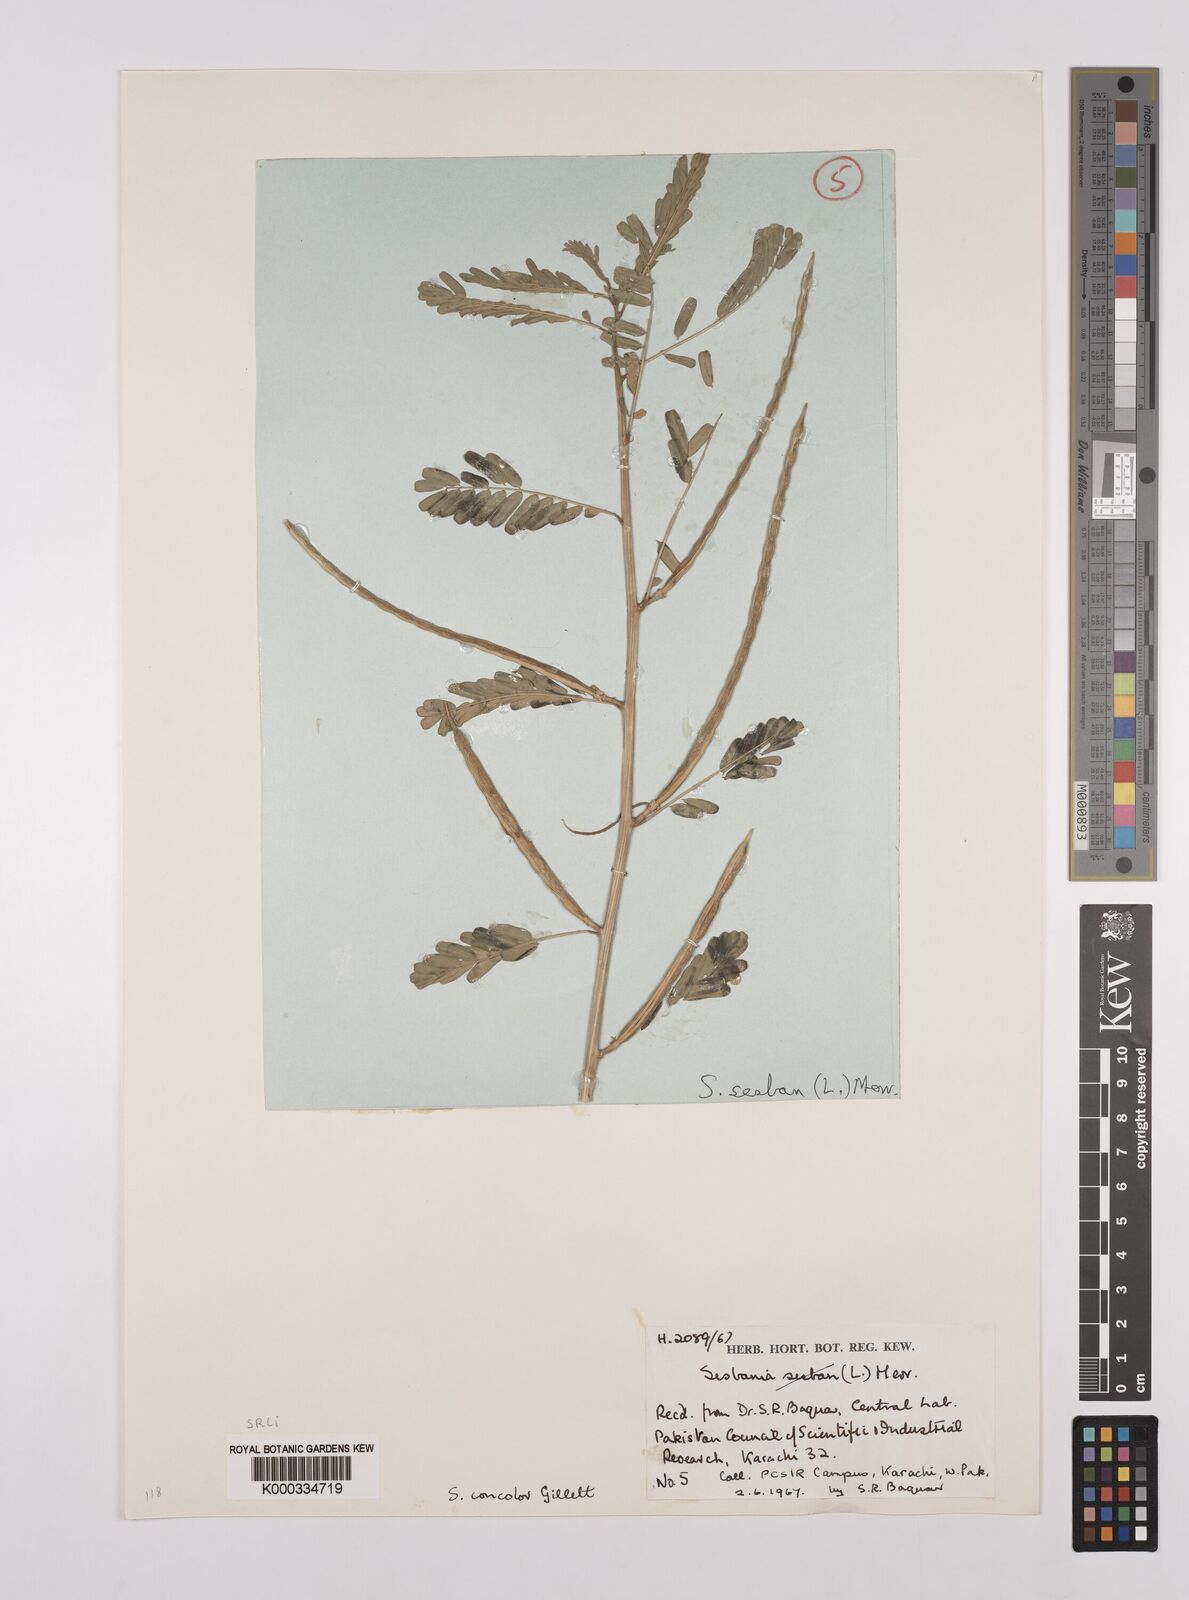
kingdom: Plantae
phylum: Tracheophyta
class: Magnoliopsida
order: Fabales
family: Fabaceae
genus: Sesbania
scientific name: Sesbania concolor
